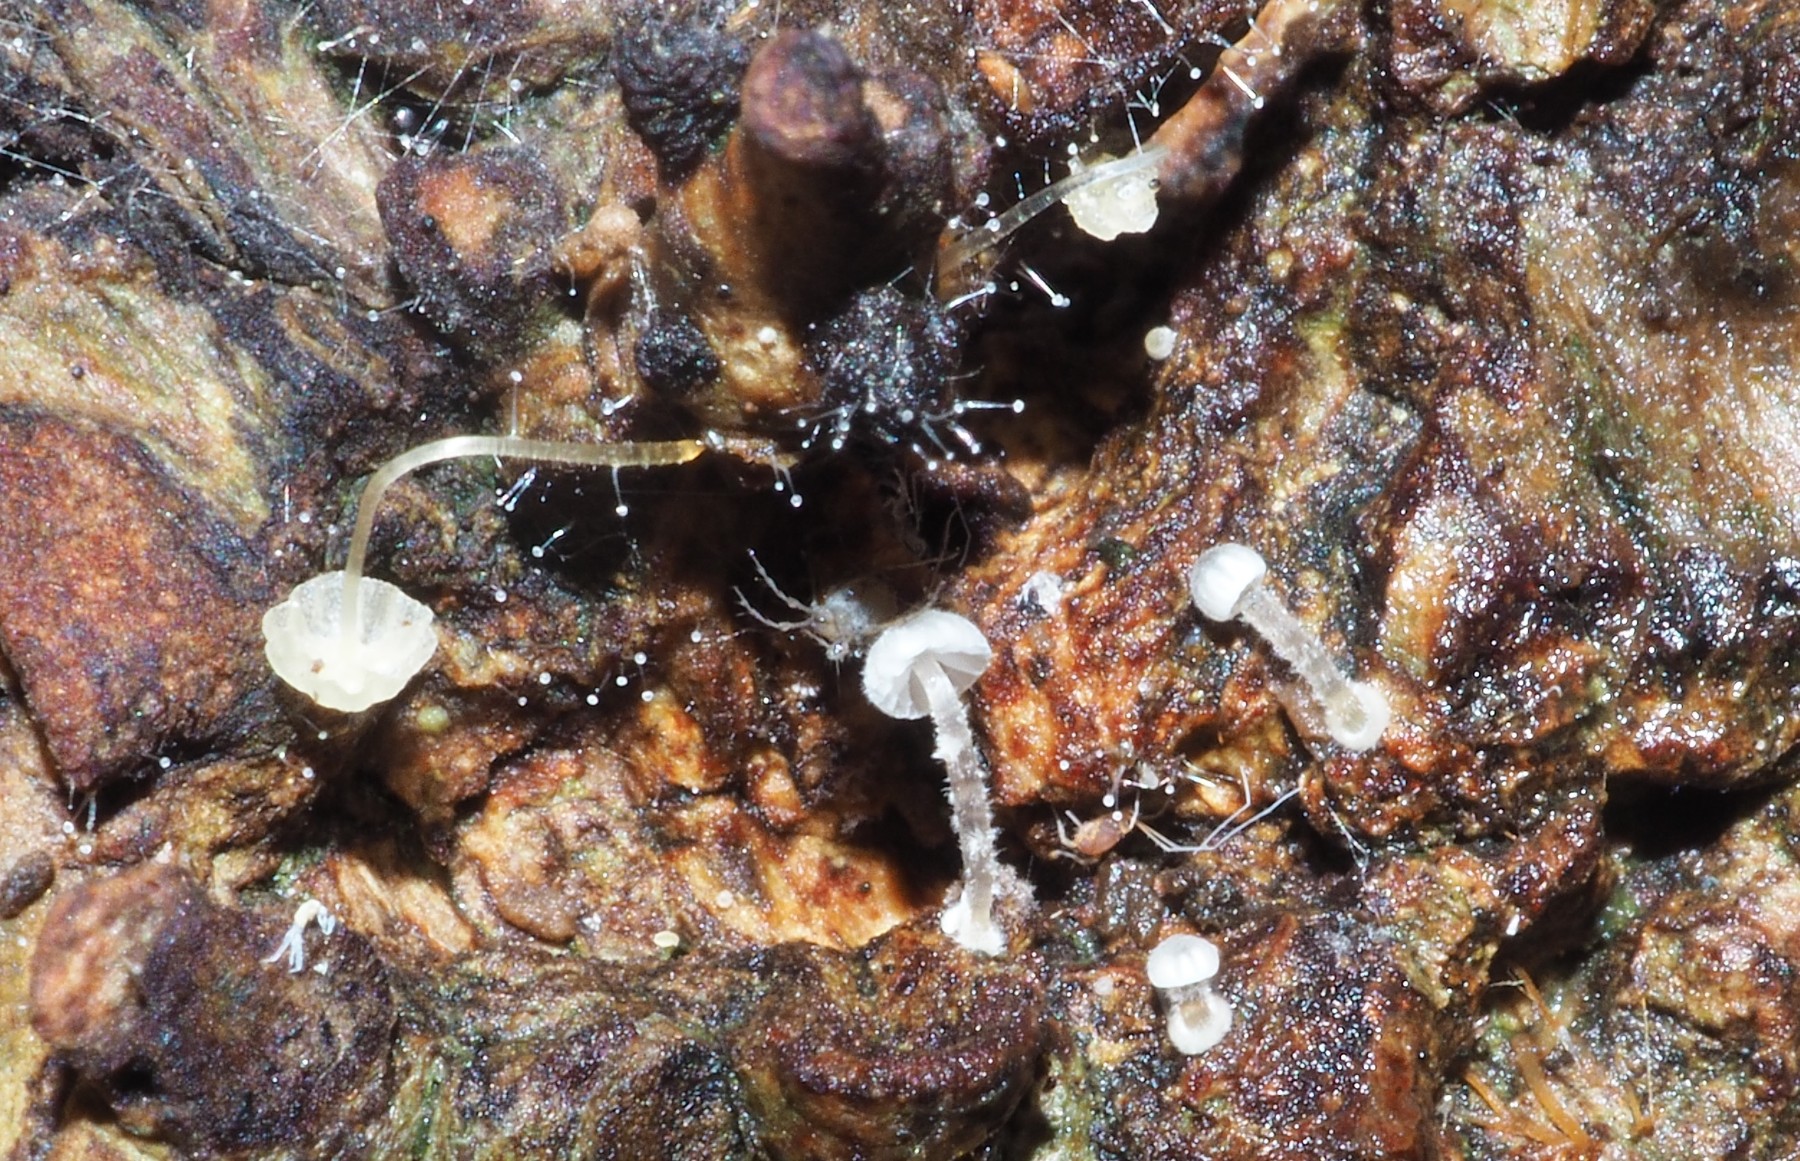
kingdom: Fungi
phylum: Basidiomycota
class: Agaricomycetes
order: Agaricales
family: Mycenaceae
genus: Mycena
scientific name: Mycena clavularis
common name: dunskivet huesvamp
